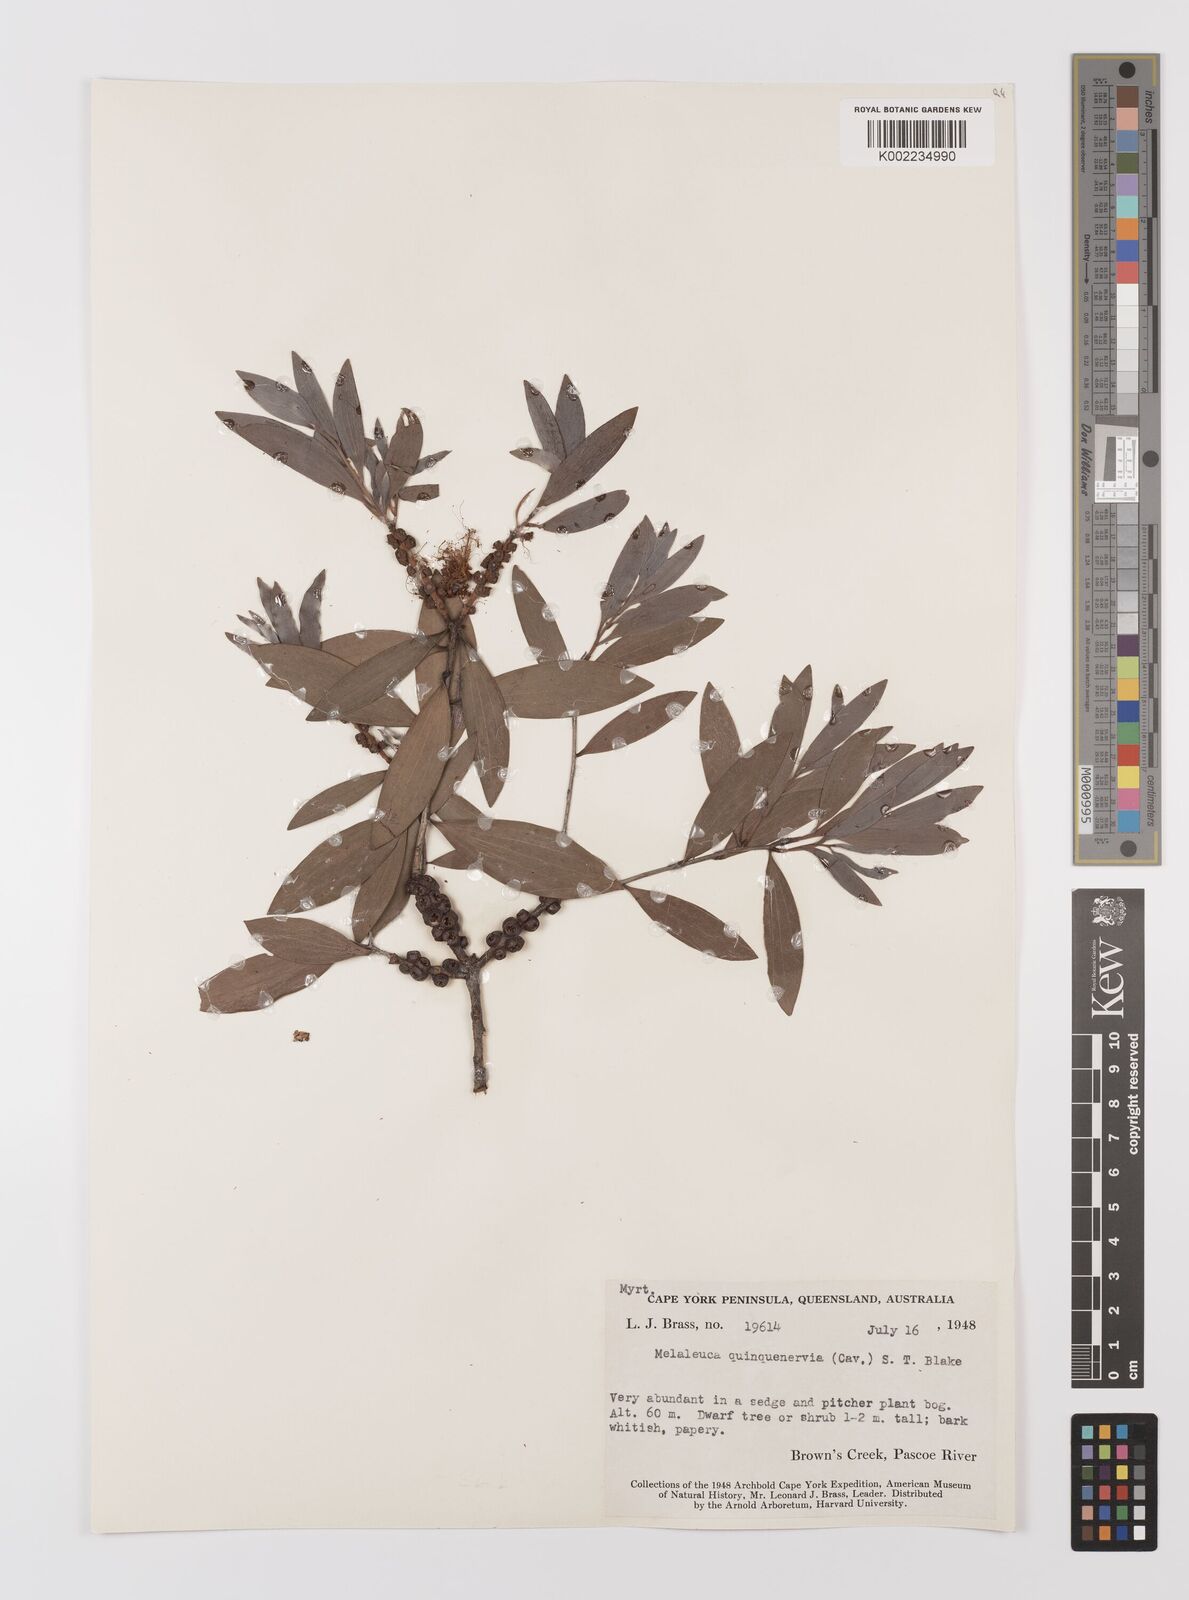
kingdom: Plantae
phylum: Tracheophyta
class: Magnoliopsida
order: Myrtales
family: Myrtaceae
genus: Melaleuca
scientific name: Melaleuca quinquenervia
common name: Punktree
